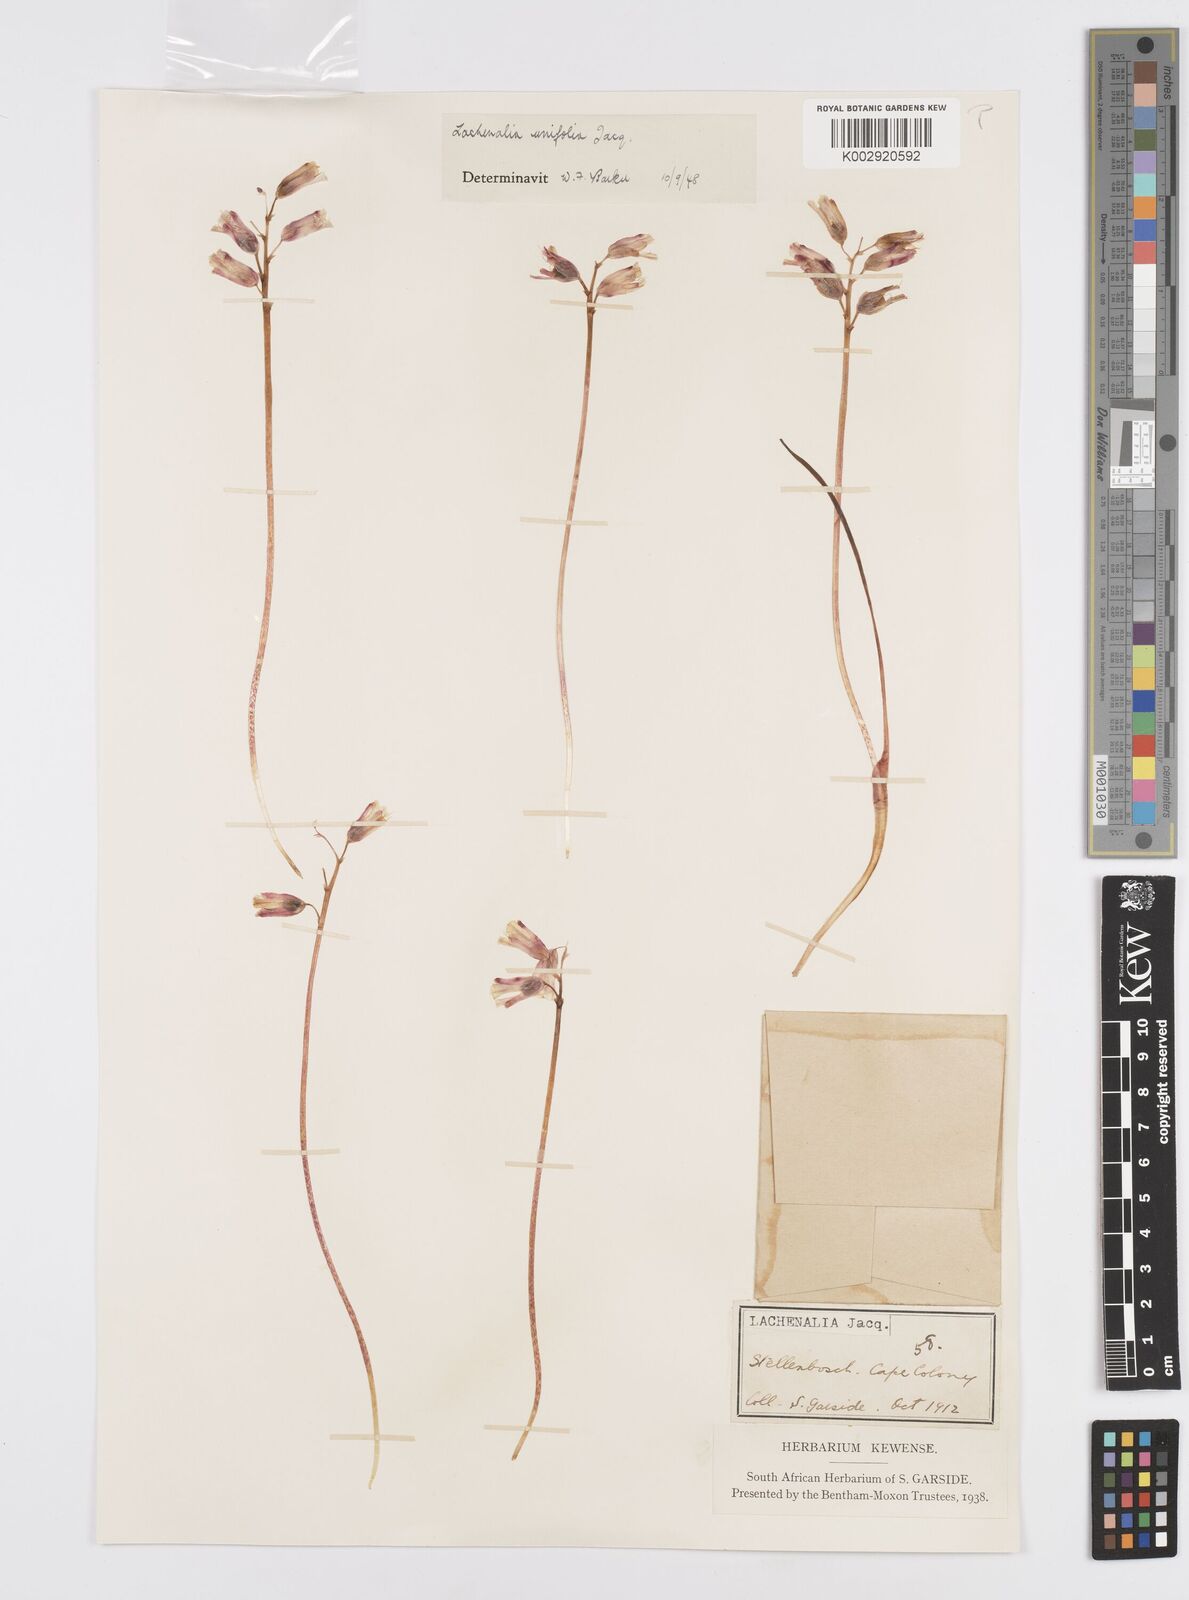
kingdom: Plantae
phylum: Tracheophyta
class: Liliopsida
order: Asparagales
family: Asparagaceae
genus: Lachenalia
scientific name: Lachenalia unifolia
